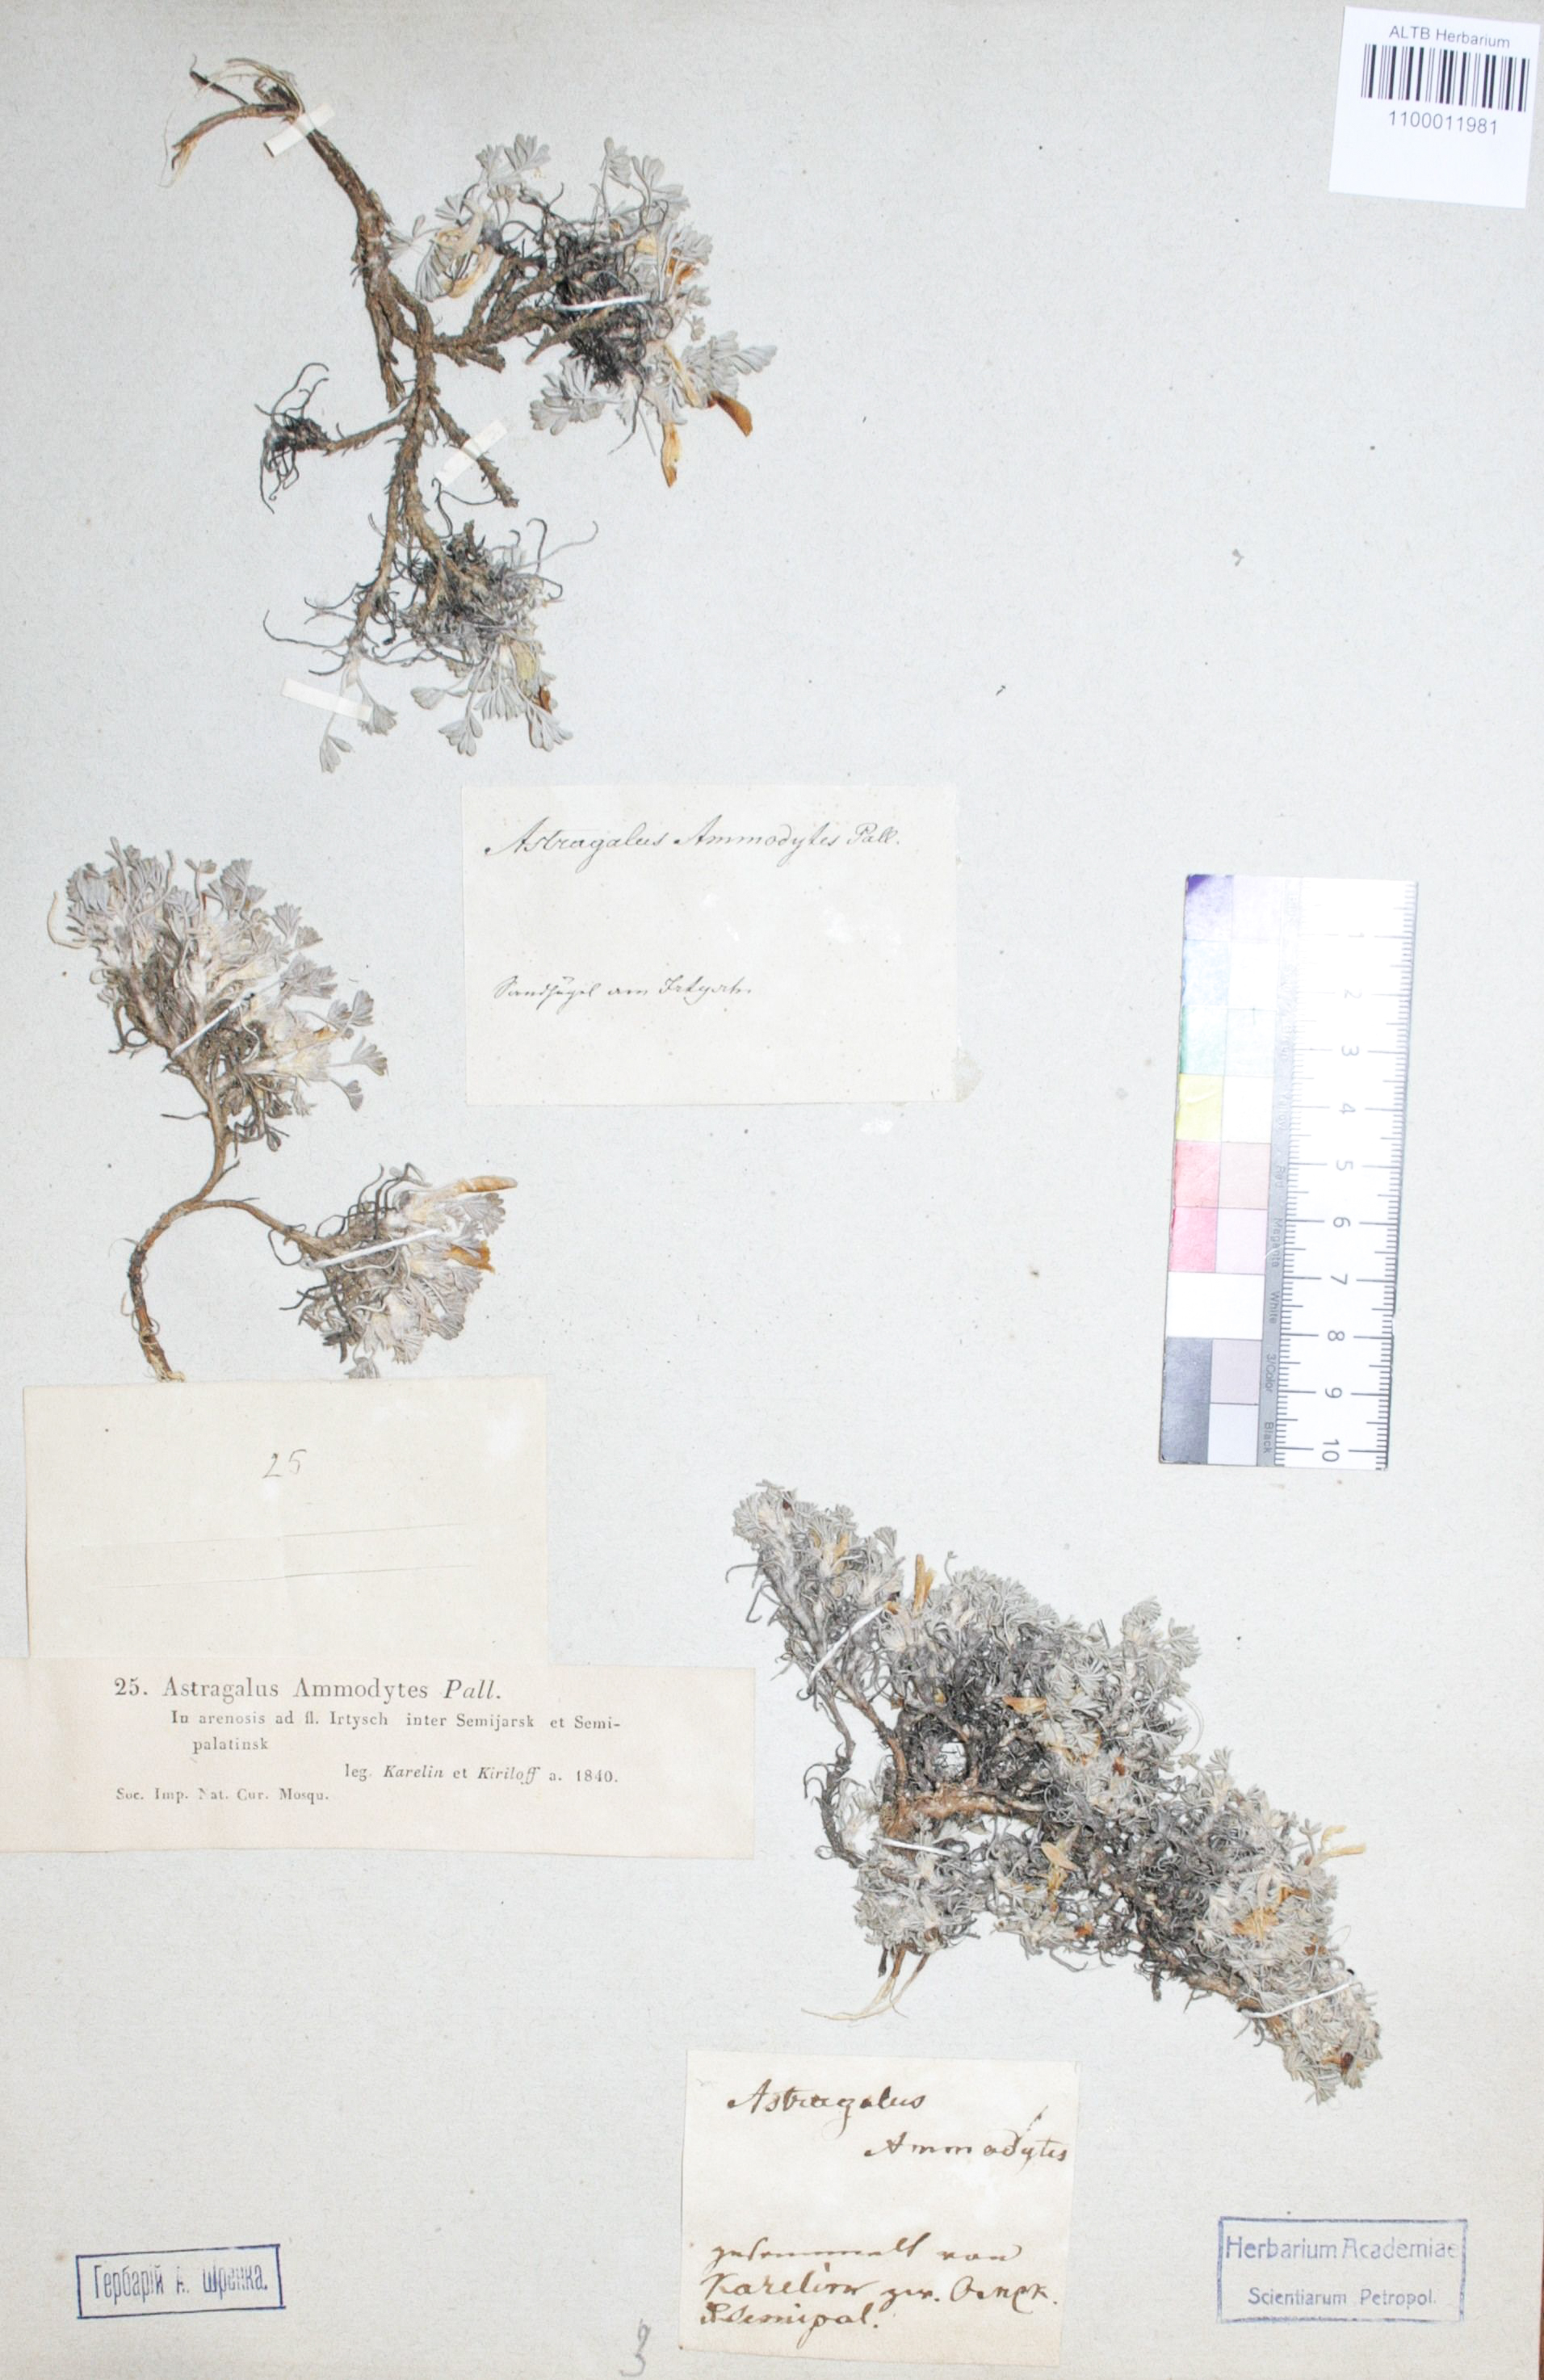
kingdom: Plantae
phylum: Tracheophyta
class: Magnoliopsida
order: Fabales
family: Fabaceae
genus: Astragalus
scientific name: Astragalus ammodytes
